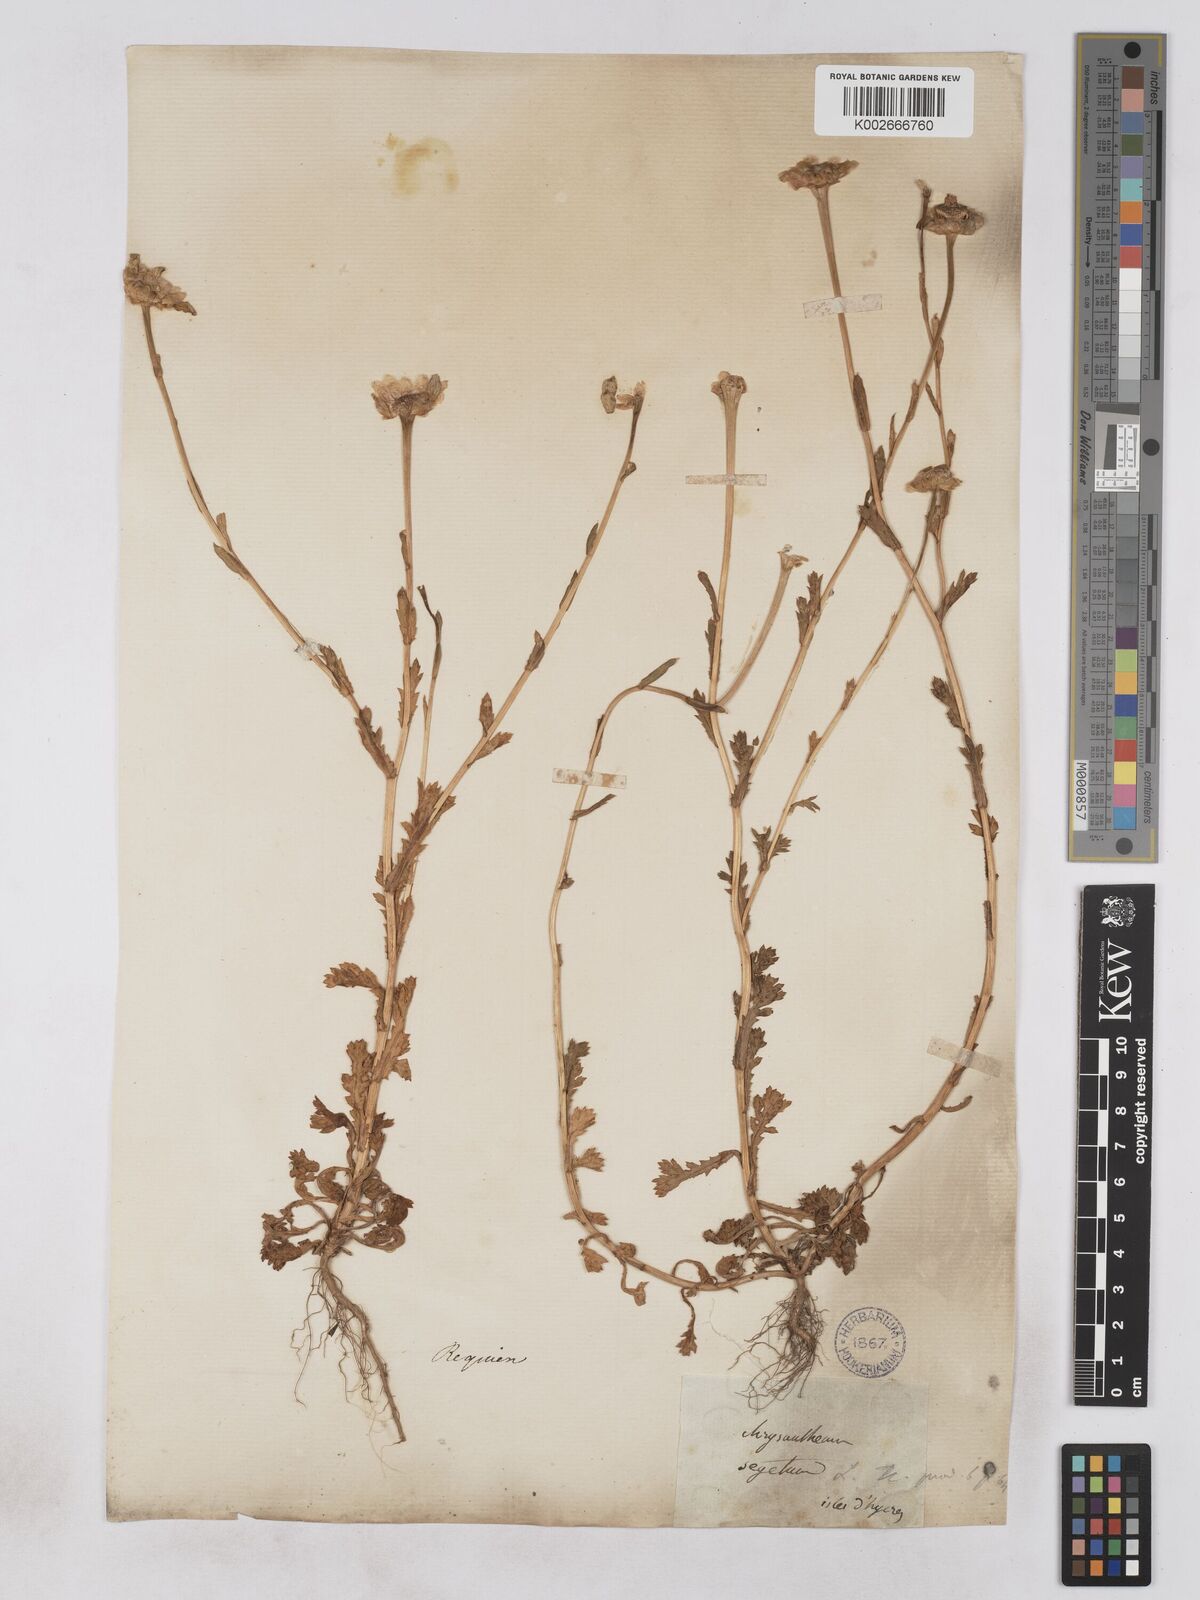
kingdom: Plantae
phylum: Tracheophyta
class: Magnoliopsida
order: Asterales
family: Asteraceae
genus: Glebionis
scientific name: Glebionis segetum
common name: Corndaisy
